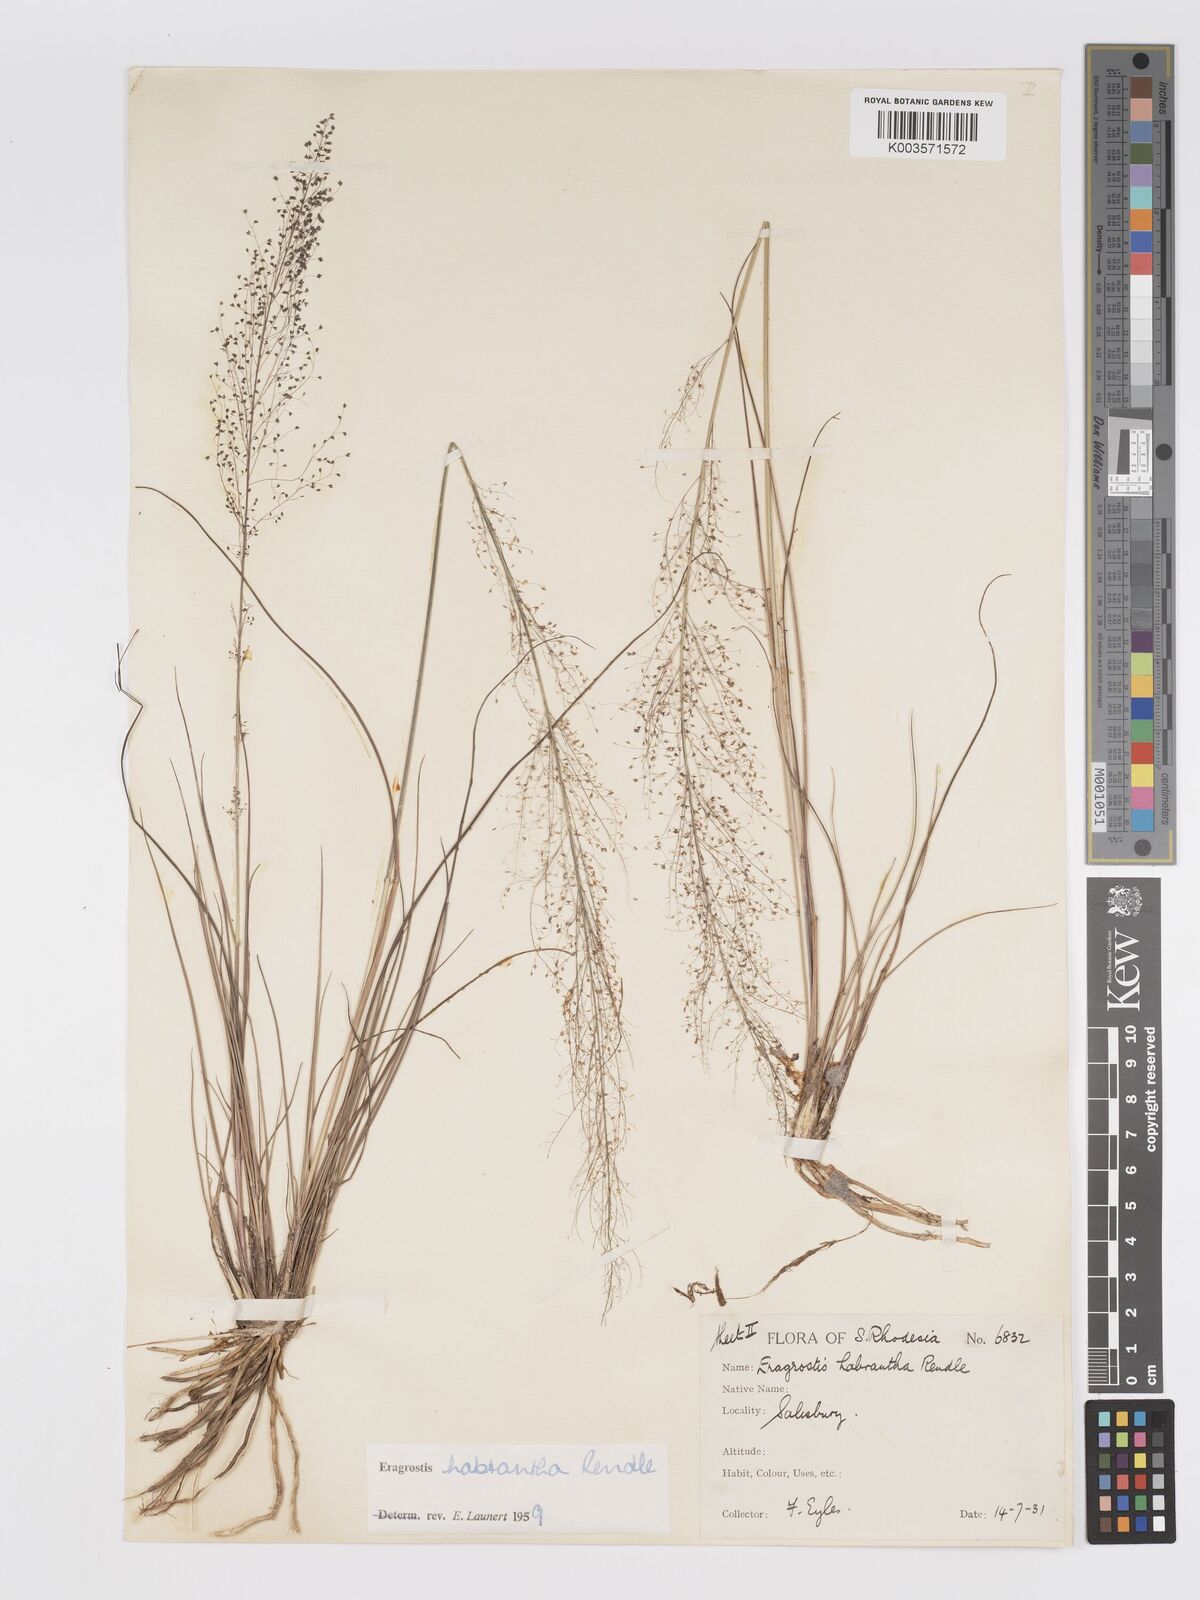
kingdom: Plantae
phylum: Tracheophyta
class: Liliopsida
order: Poales
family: Poaceae
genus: Eragrostis
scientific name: Eragrostis habrantha
